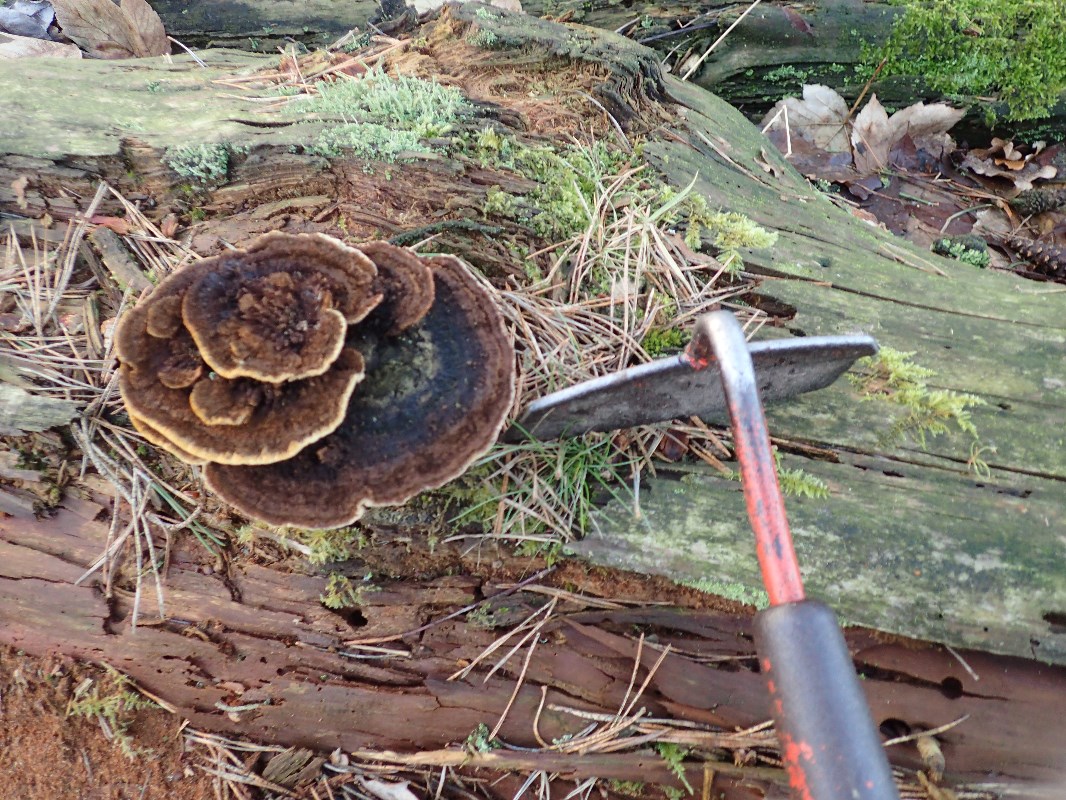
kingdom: Fungi
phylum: Basidiomycota
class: Agaricomycetes
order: Gloeophyllales
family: Gloeophyllaceae
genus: Gloeophyllum
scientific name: Gloeophyllum sepiarium
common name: fyrre-korkhat
